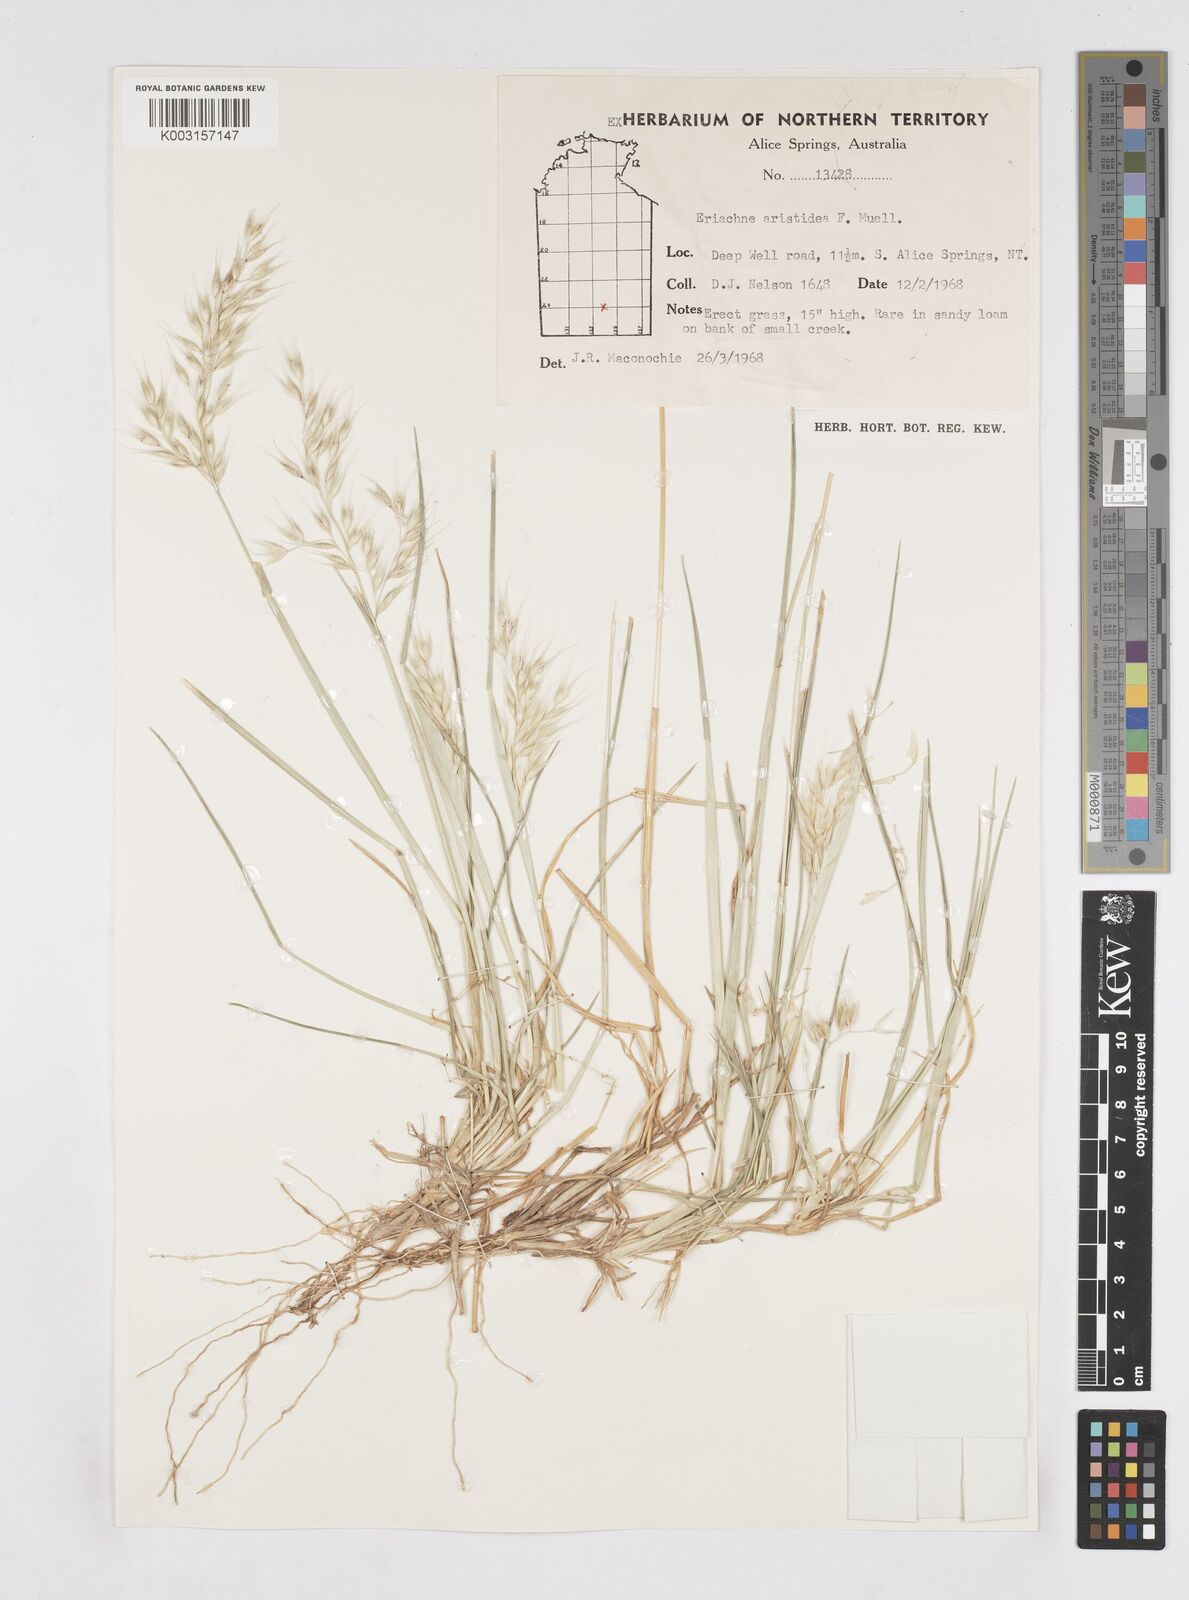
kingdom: Plantae
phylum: Tracheophyta
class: Liliopsida
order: Poales
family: Poaceae
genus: Eriachne
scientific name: Eriachne aristidea
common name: Three-awn wanderrie grass
